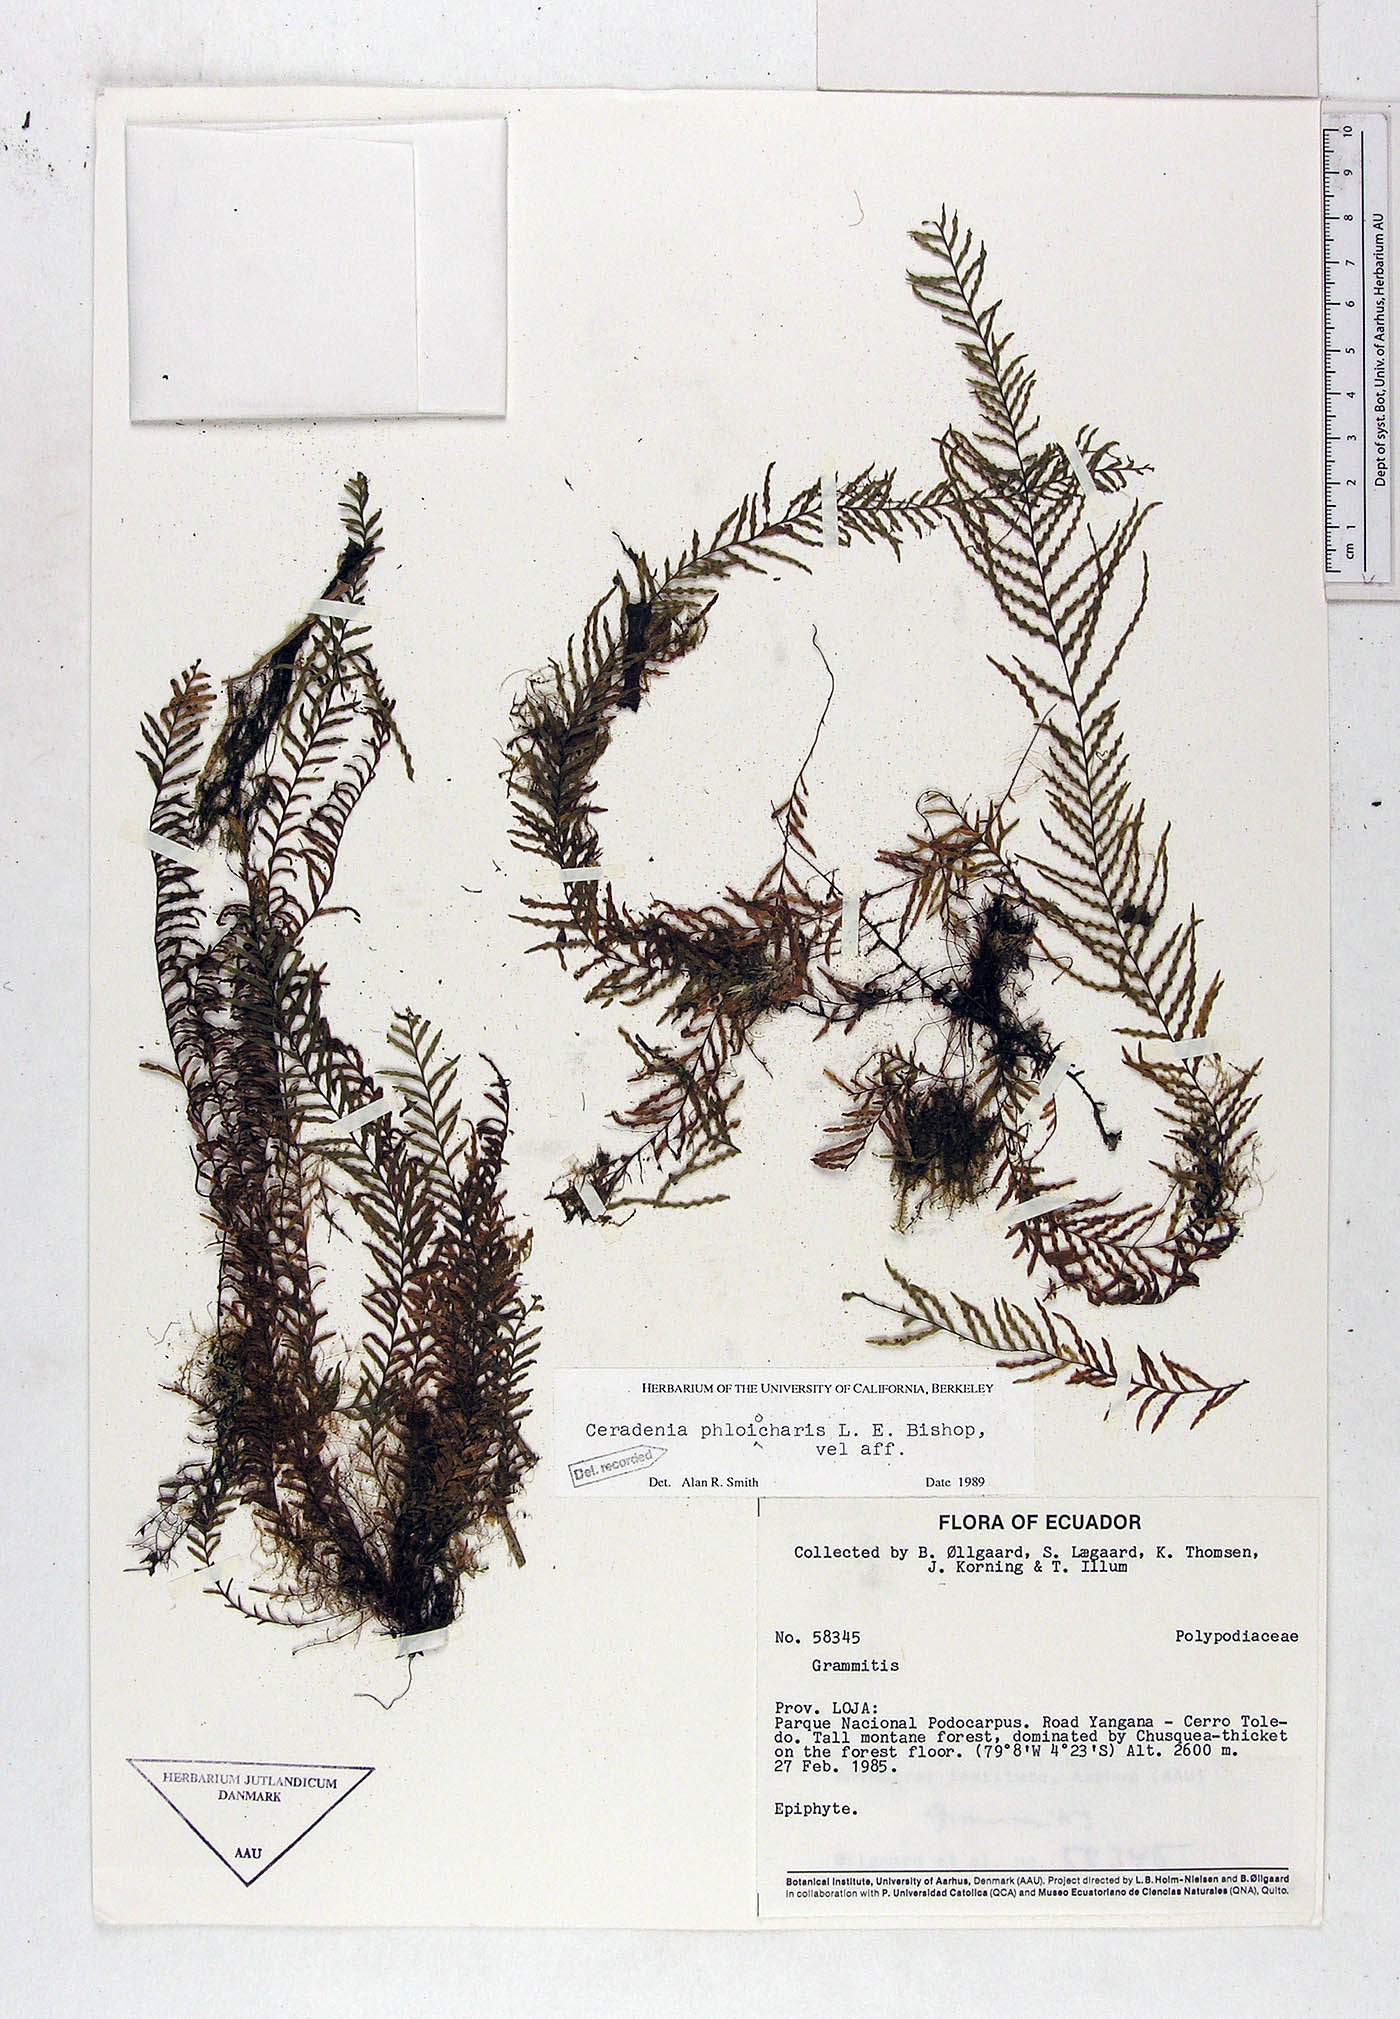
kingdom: Plantae
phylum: Tracheophyta
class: Polypodiopsida
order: Polypodiales
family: Polypodiaceae
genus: Ceradenia
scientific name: Ceradenia phloiocharis
